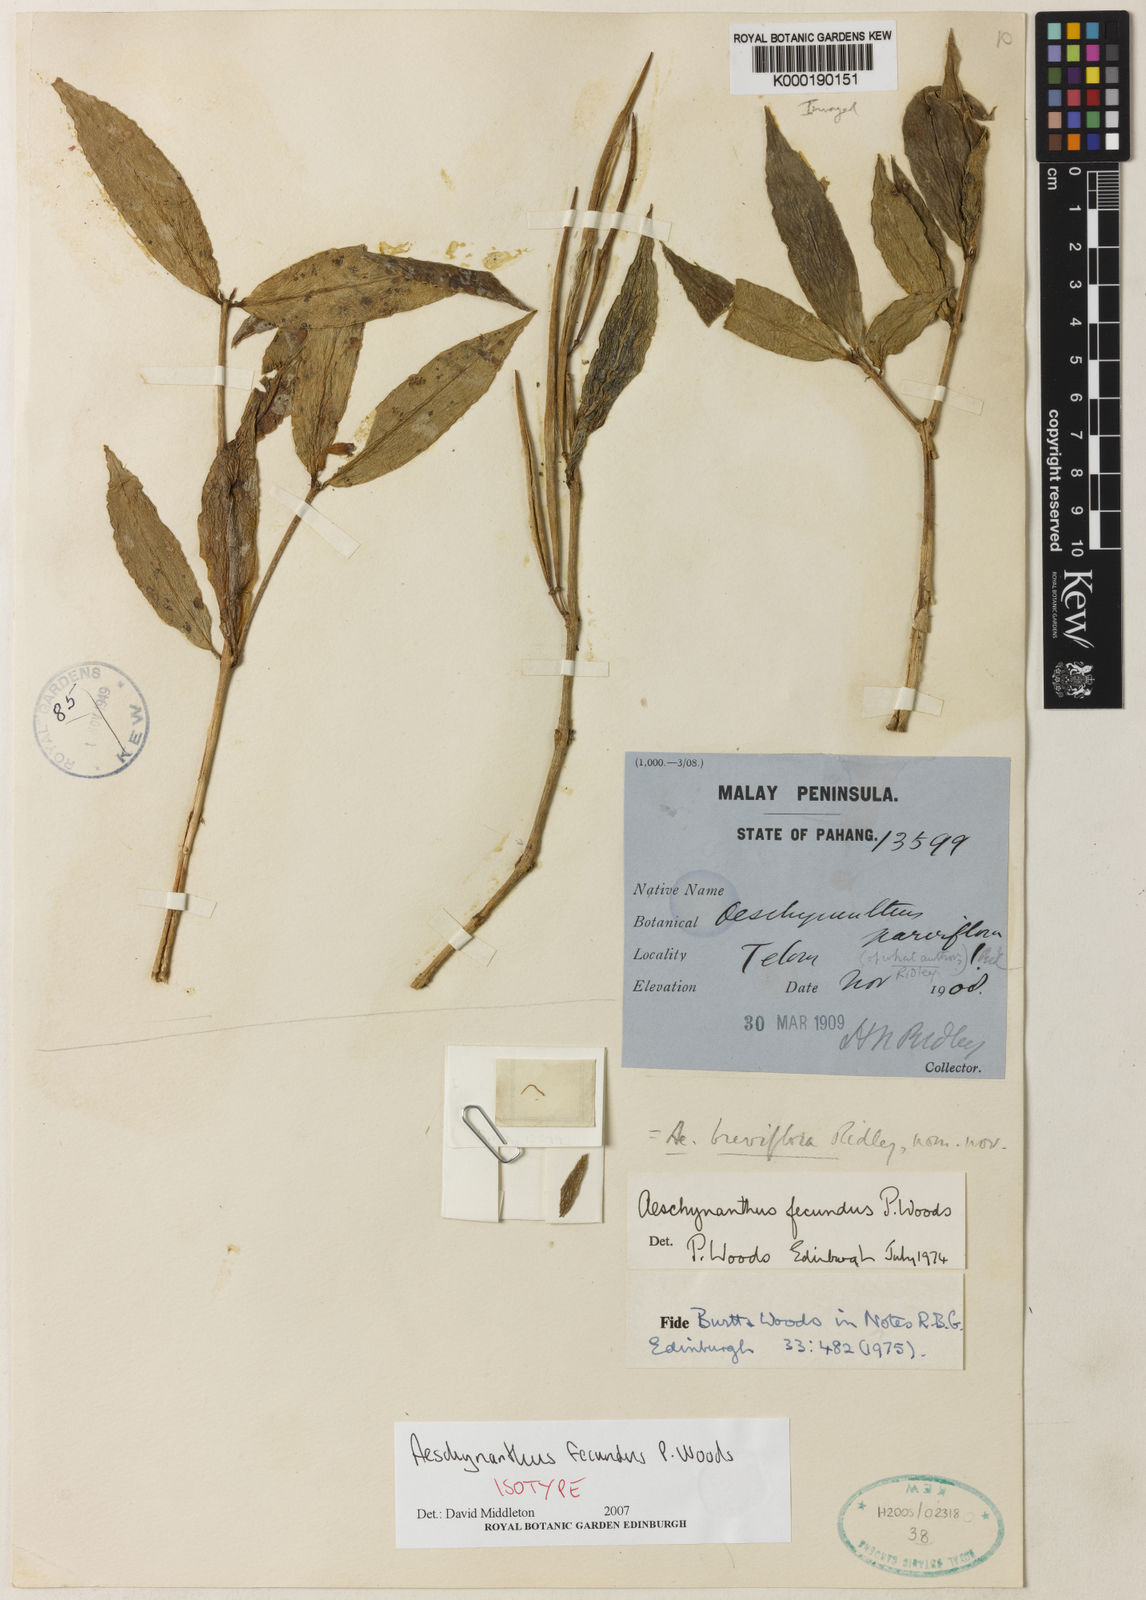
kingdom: Plantae
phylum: Tracheophyta
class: Magnoliopsida
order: Lamiales
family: Gesneriaceae
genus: Aeschynanthus
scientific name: Aeschynanthus fecundus
